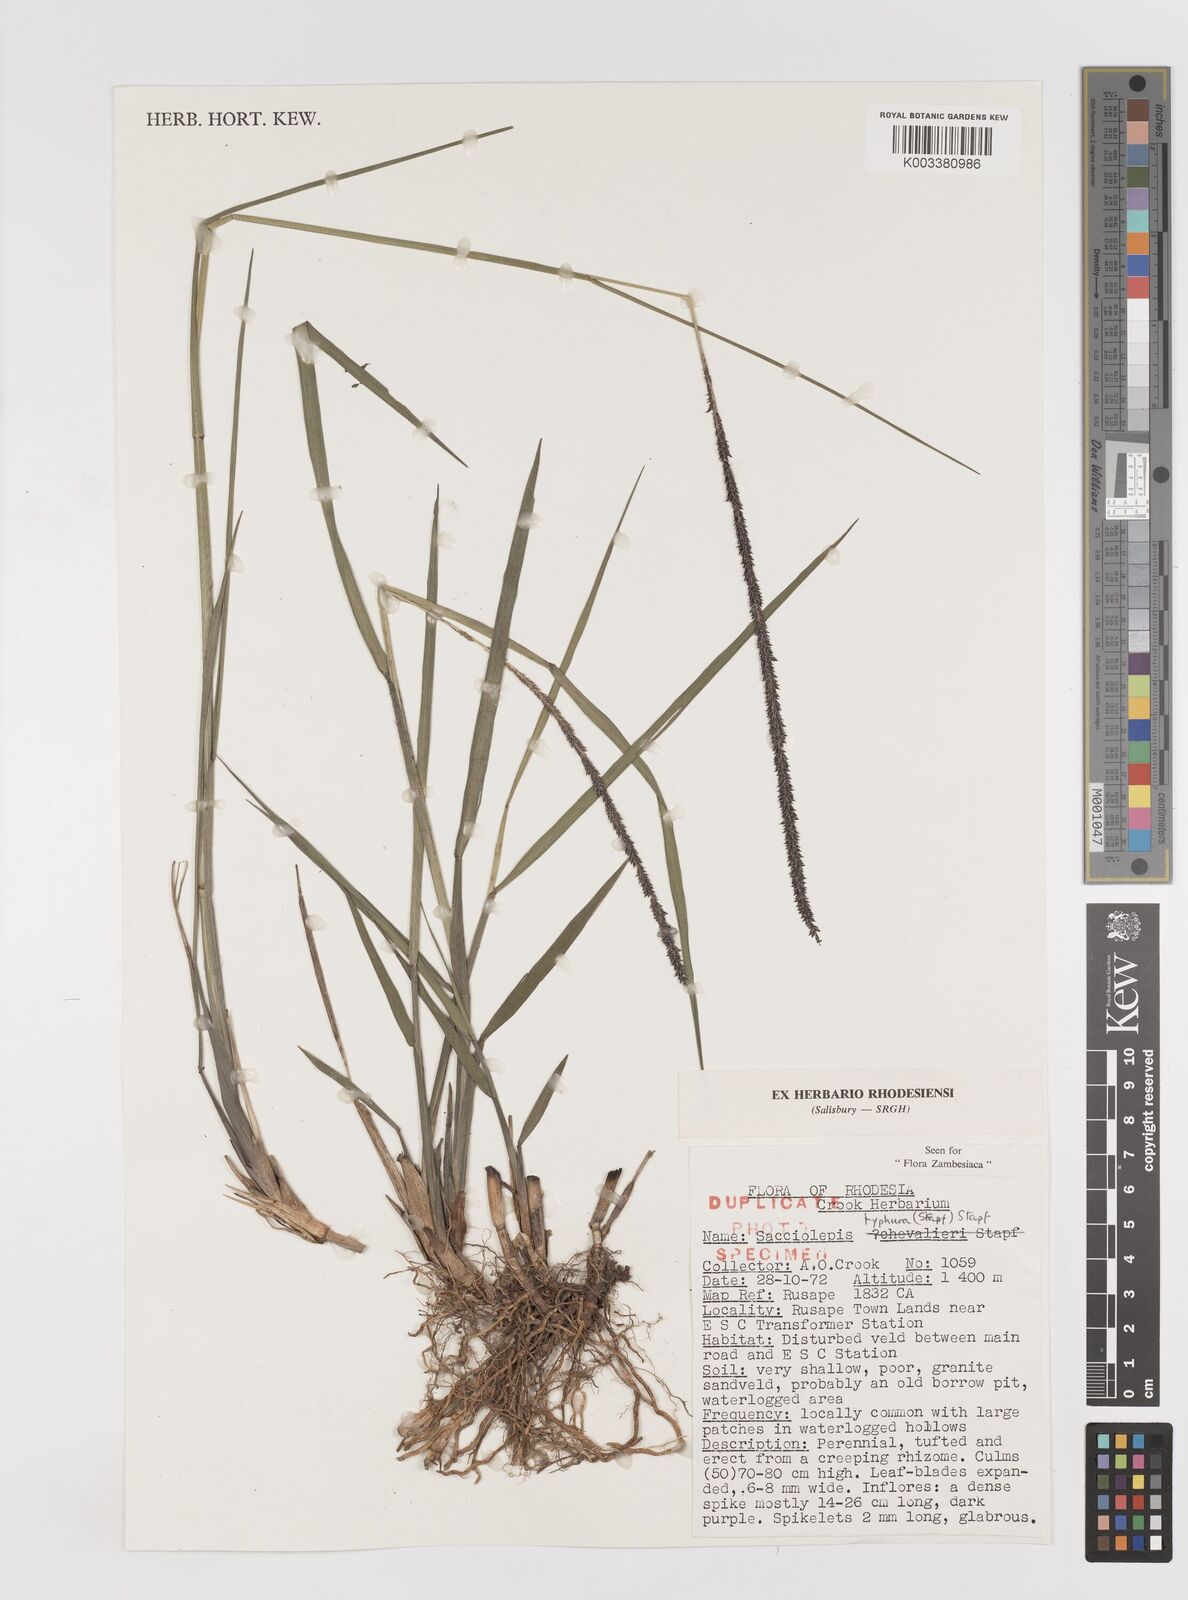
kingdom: Plantae
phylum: Tracheophyta
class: Liliopsida
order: Poales
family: Poaceae
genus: Sacciolepis
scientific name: Sacciolepis typhura
